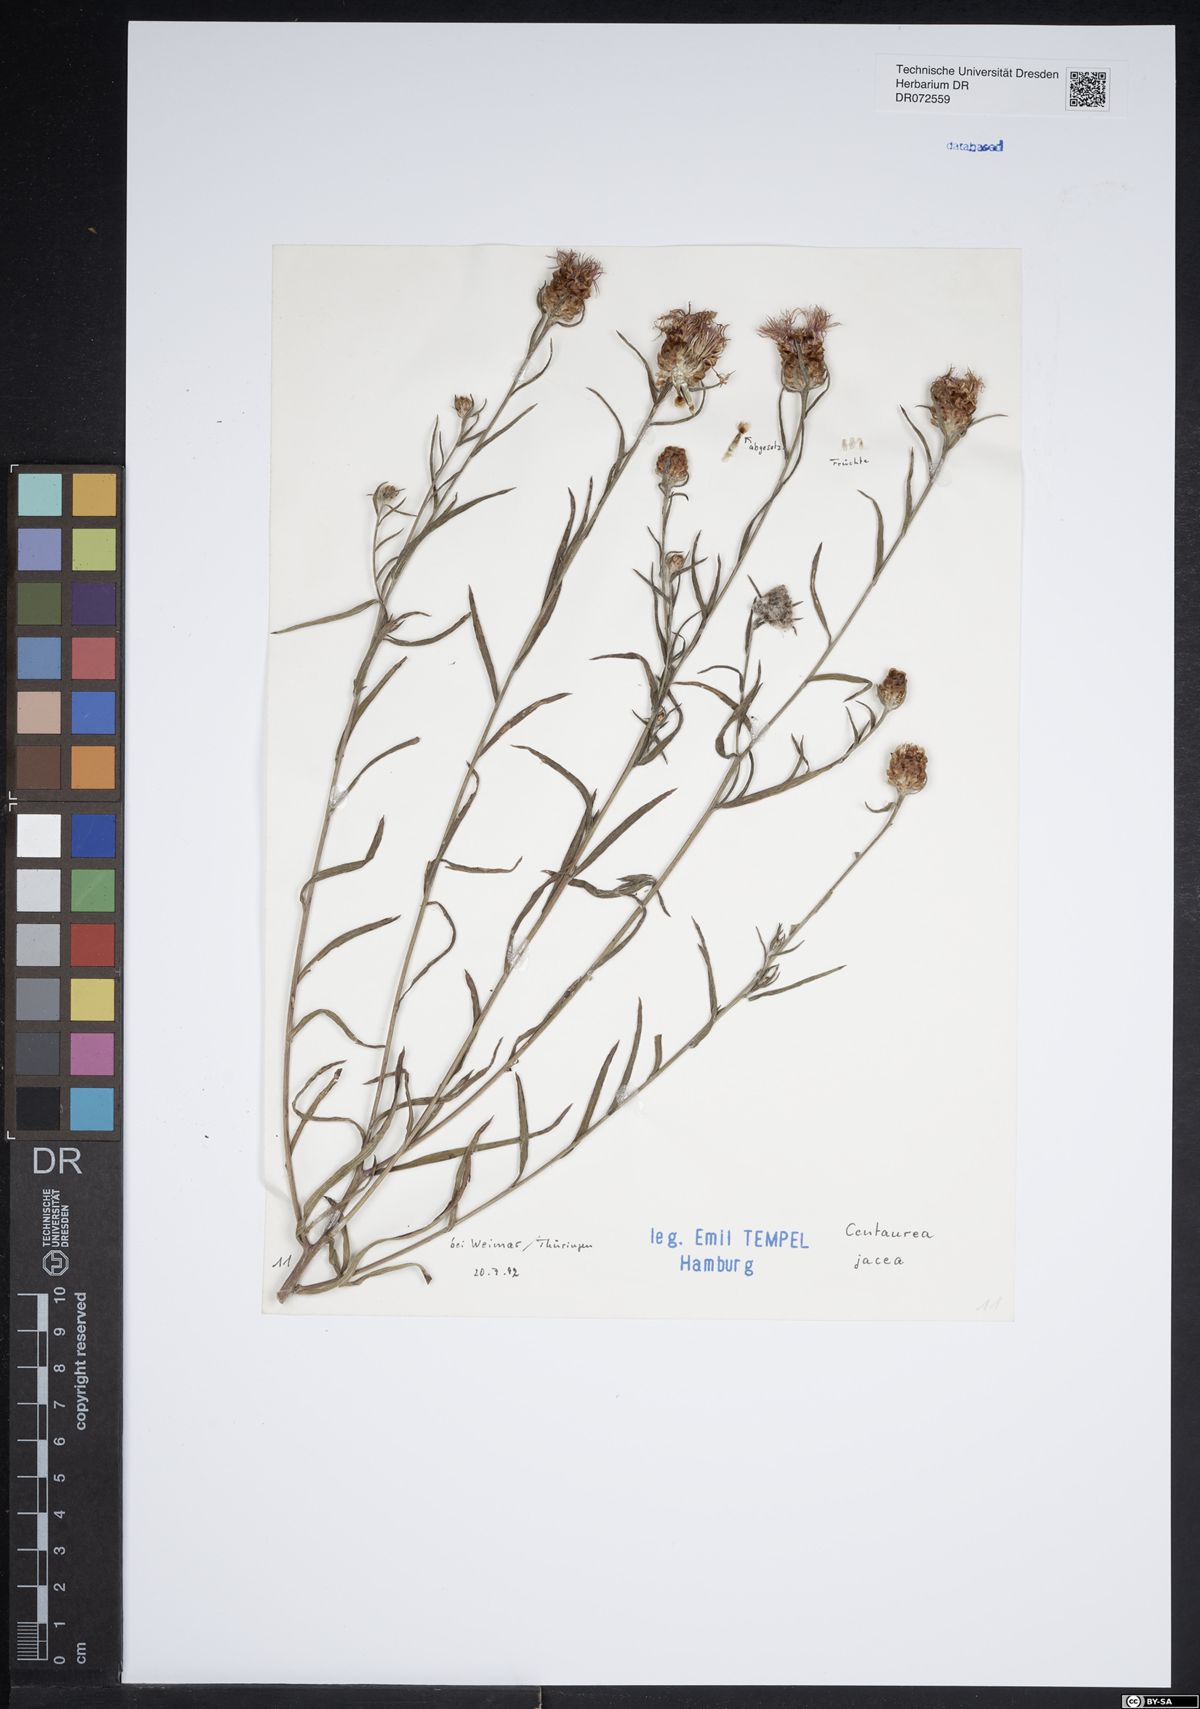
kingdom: Plantae
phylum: Tracheophyta
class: Magnoliopsida
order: Asterales
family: Asteraceae
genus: Centaurea
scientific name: Centaurea jacea
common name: Brown knapweed
